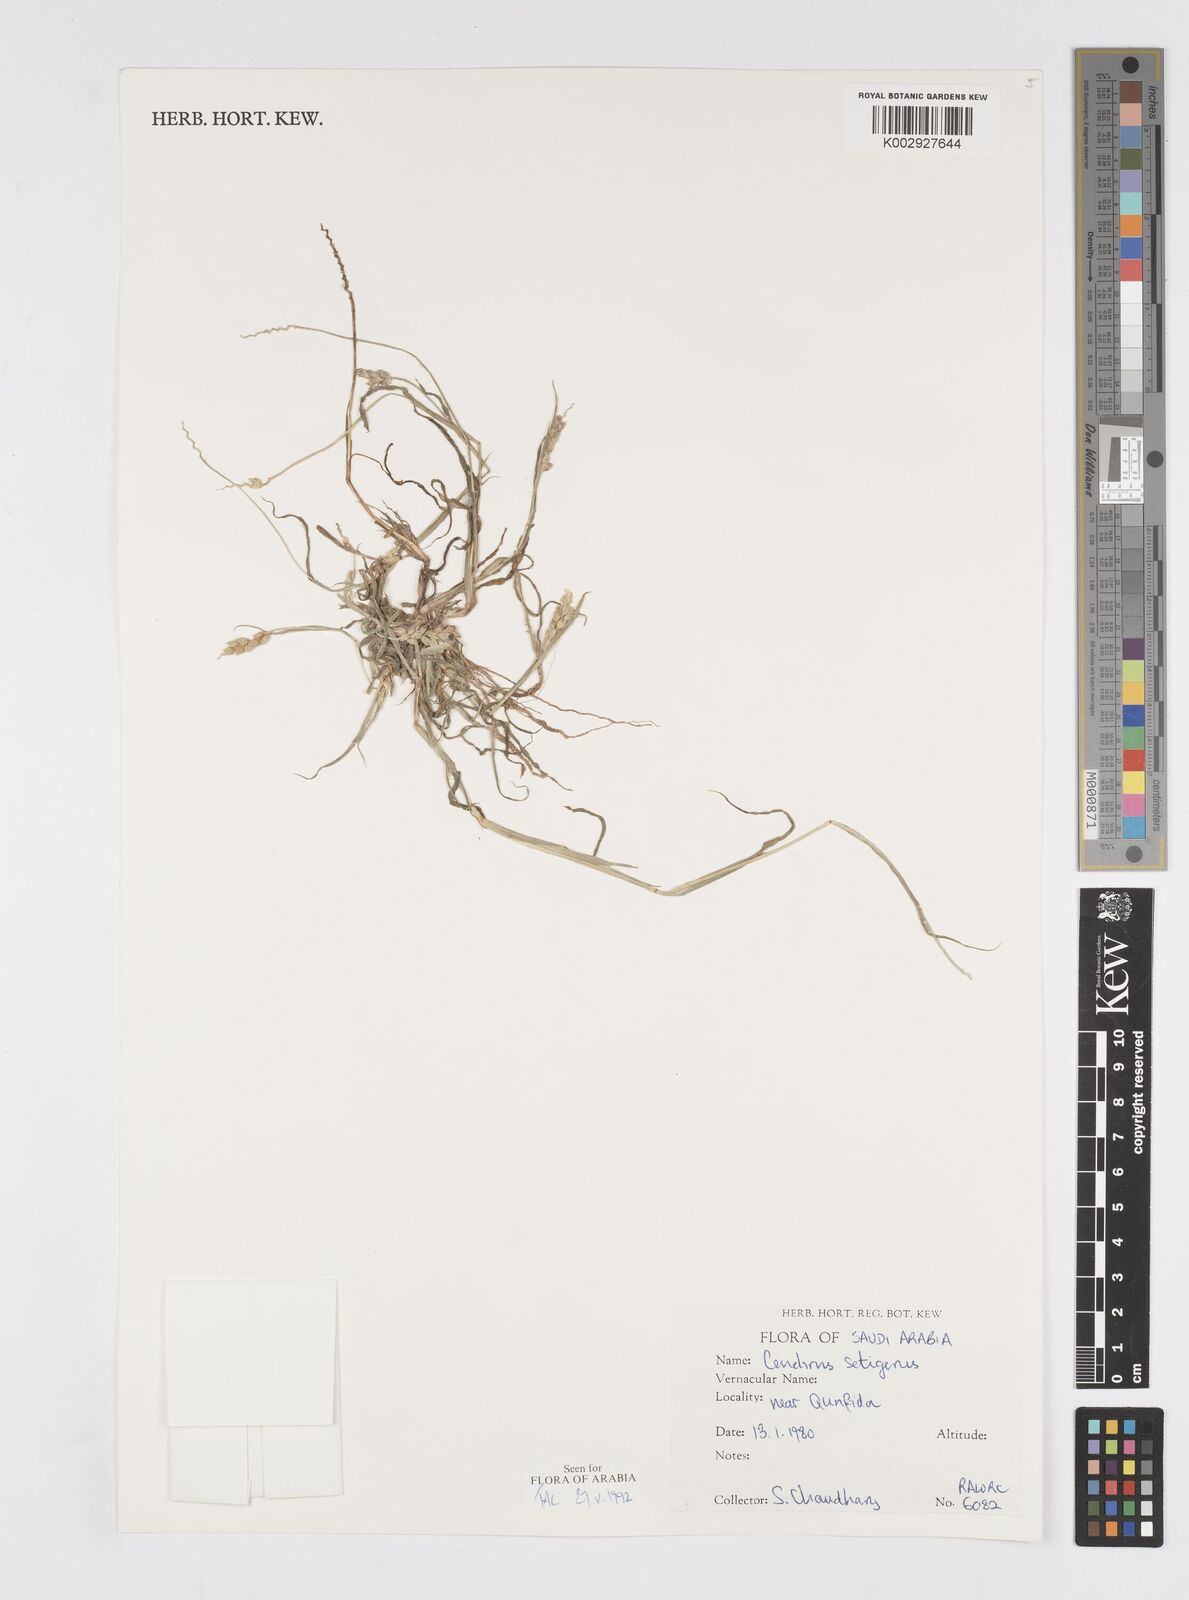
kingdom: Plantae
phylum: Tracheophyta
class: Liliopsida
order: Poales
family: Poaceae
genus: Cenchrus
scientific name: Cenchrus setigerus
